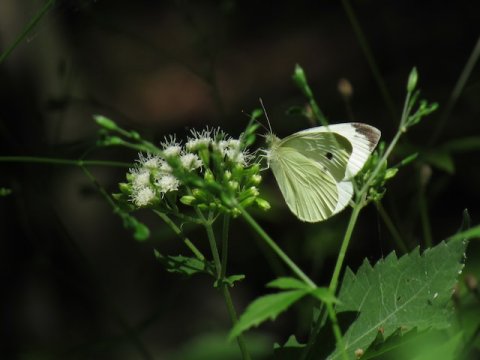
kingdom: Animalia
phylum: Arthropoda
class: Insecta
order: Lepidoptera
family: Pieridae
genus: Pieris
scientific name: Pieris rapae
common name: Cabbage White
